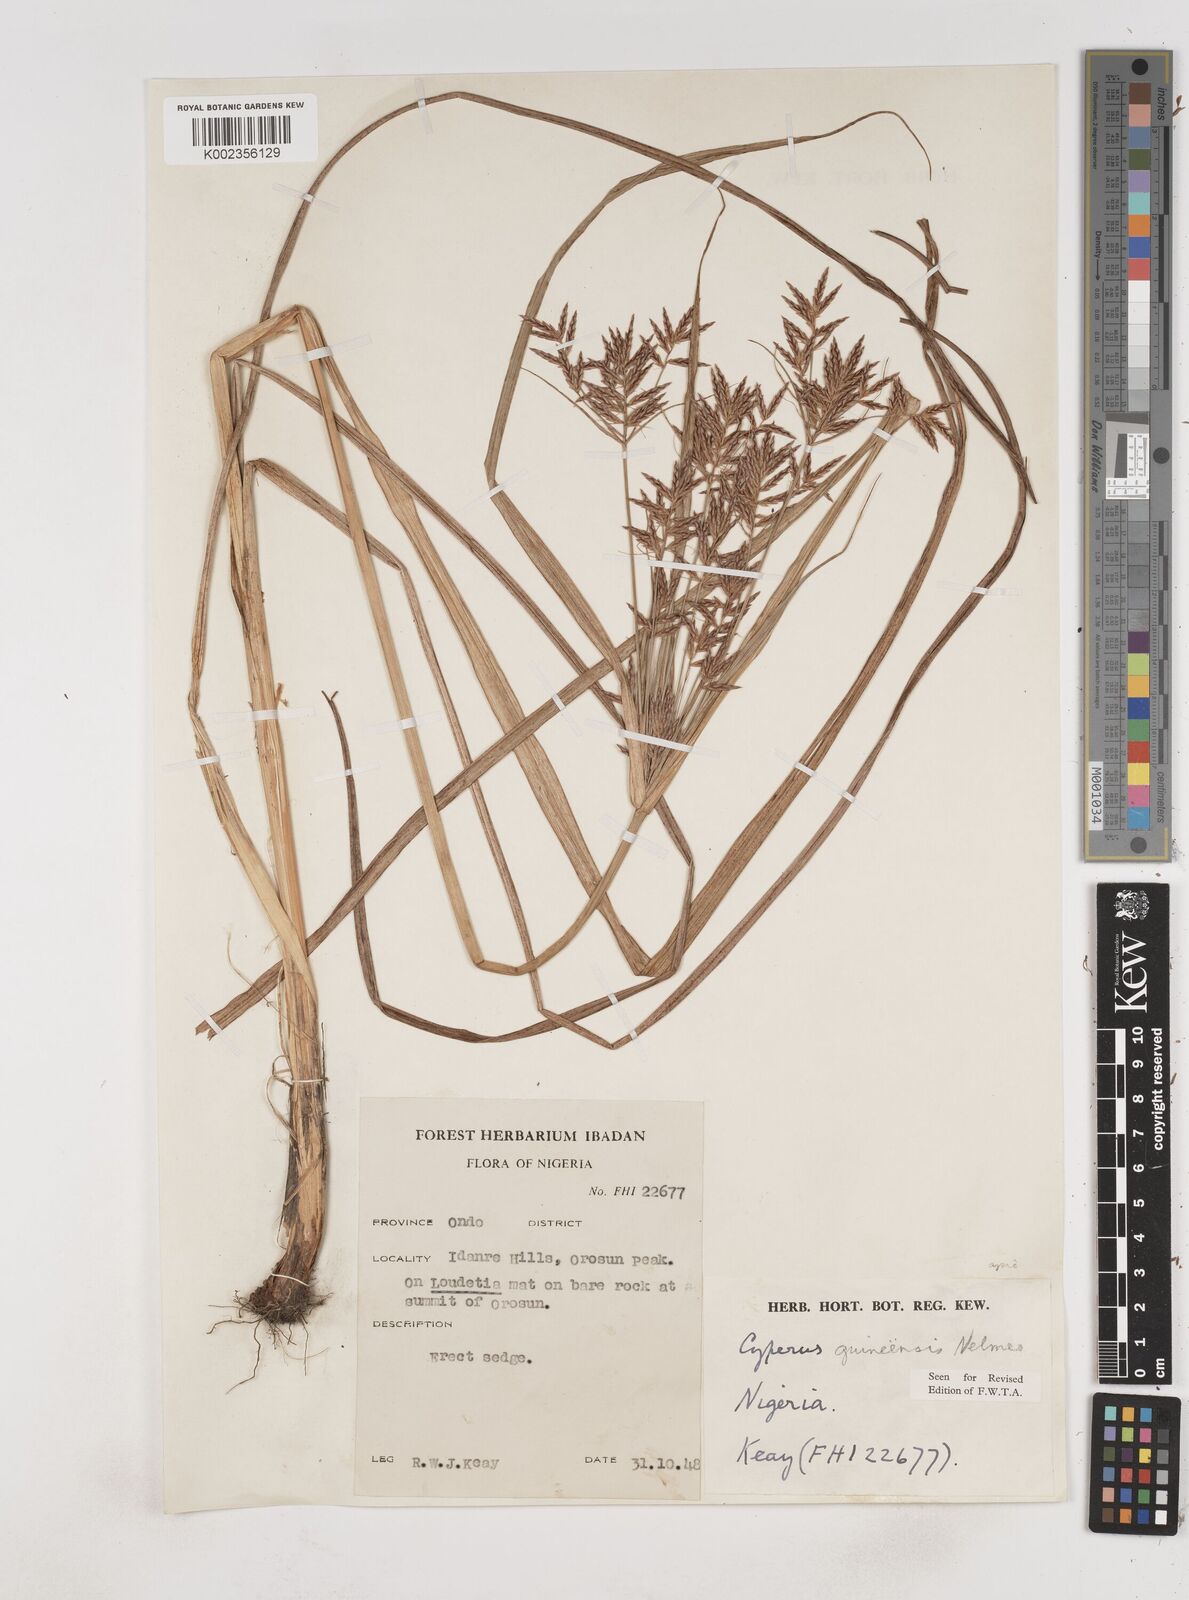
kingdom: Plantae
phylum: Tracheophyta
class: Liliopsida
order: Poales
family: Cyperaceae
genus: Cyperus
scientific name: Cyperus tenuiculmis
